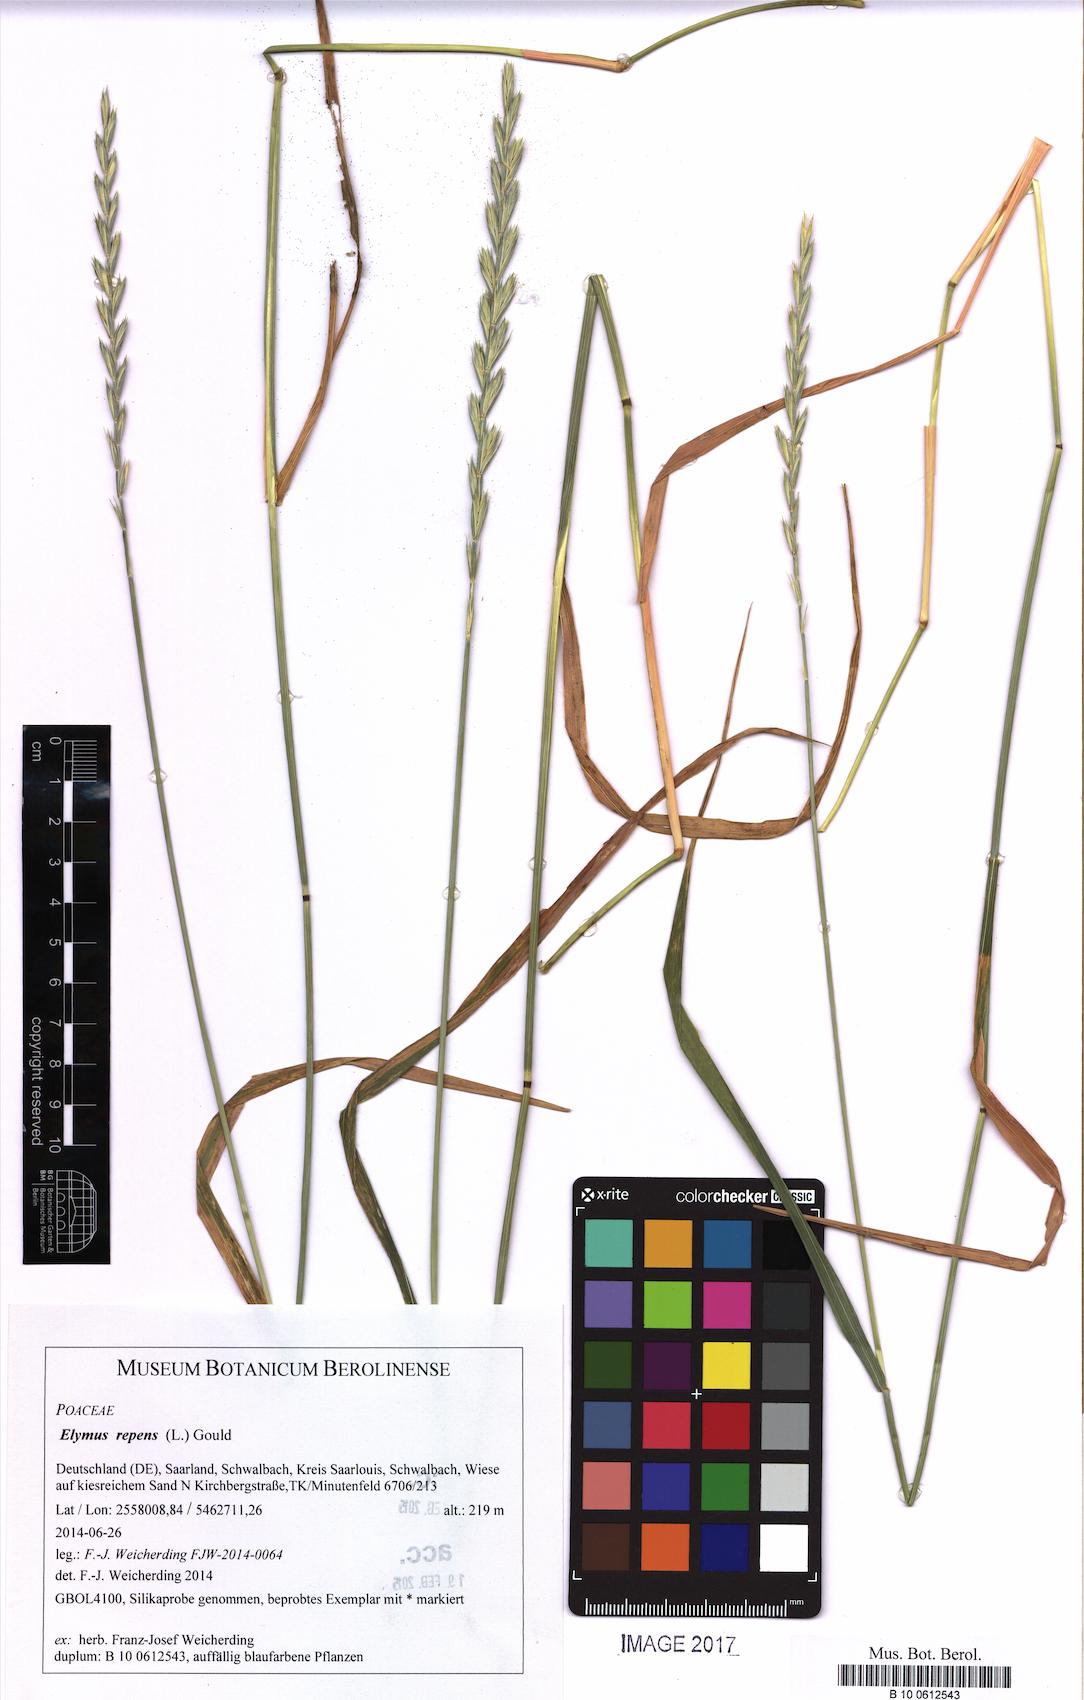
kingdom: Plantae
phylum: Tracheophyta
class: Liliopsida
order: Poales
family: Poaceae
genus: Elymus
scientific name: Elymus repens
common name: Quackgrass
